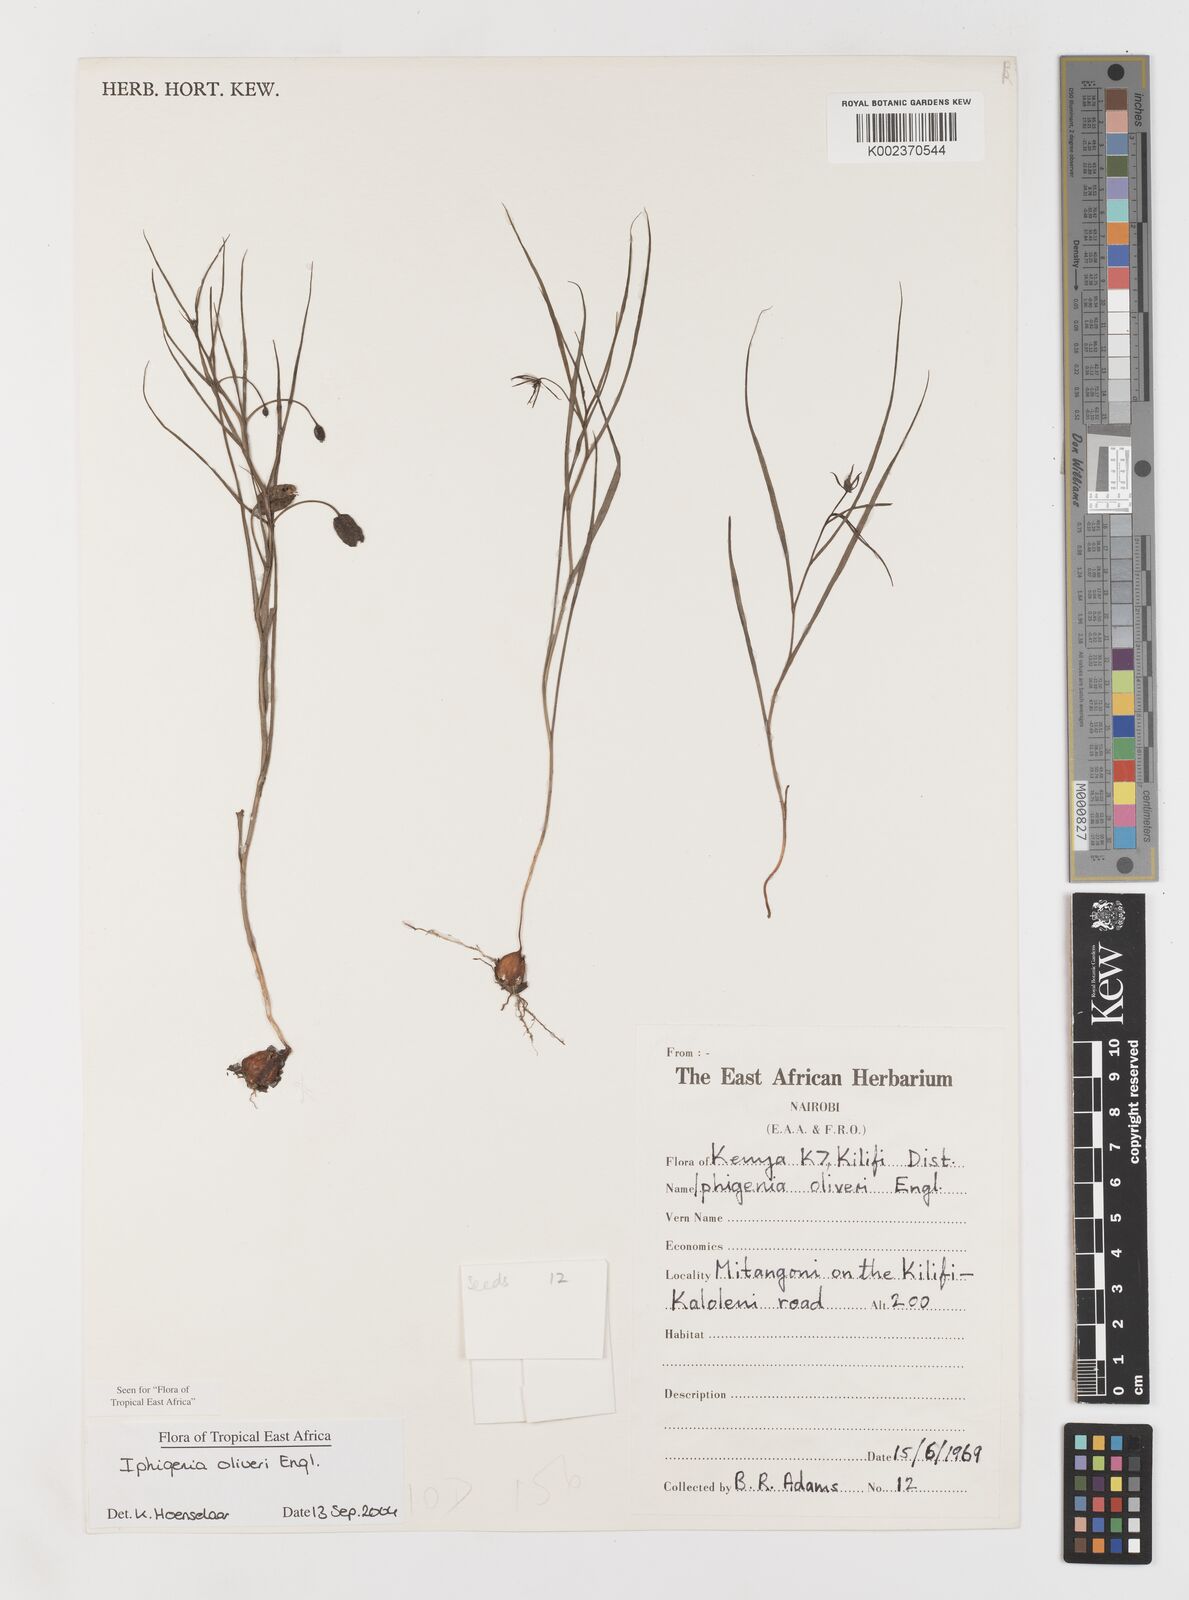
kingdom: Plantae
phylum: Tracheophyta
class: Liliopsida
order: Liliales
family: Colchicaceae
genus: Iphigenia
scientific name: Iphigenia oliveri
